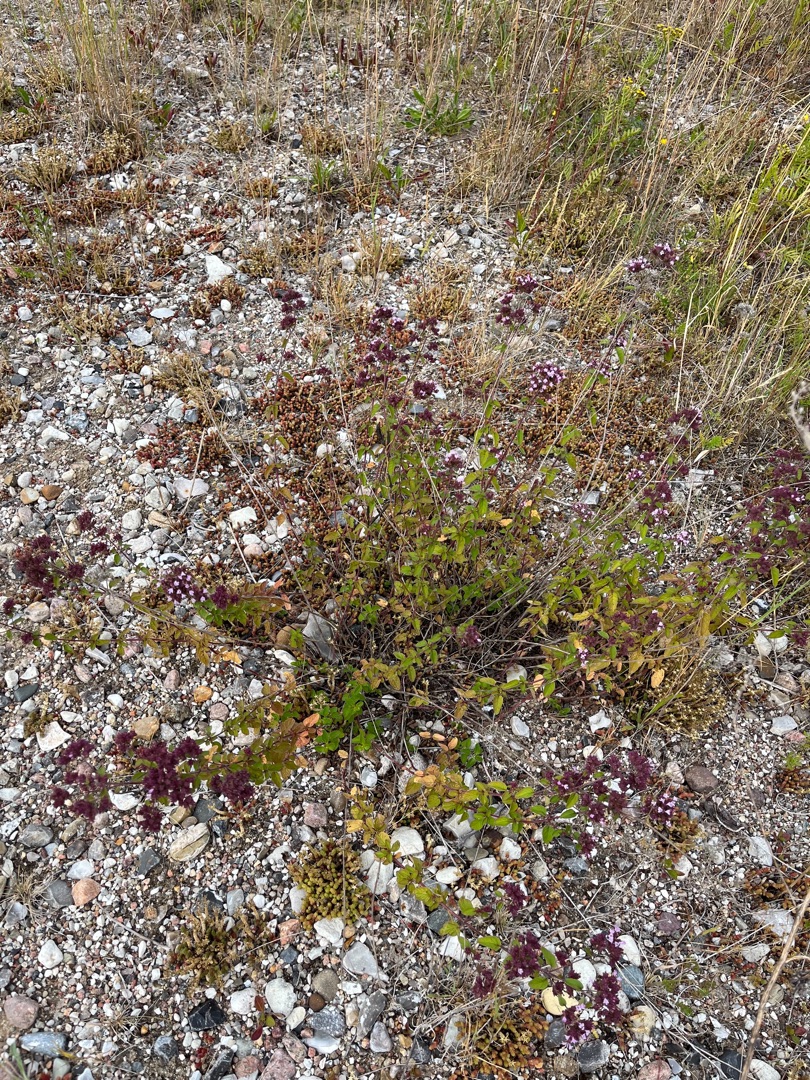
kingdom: Plantae
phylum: Tracheophyta
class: Magnoliopsida
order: Lamiales
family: Lamiaceae
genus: Origanum
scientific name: Origanum vulgare
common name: Merian
